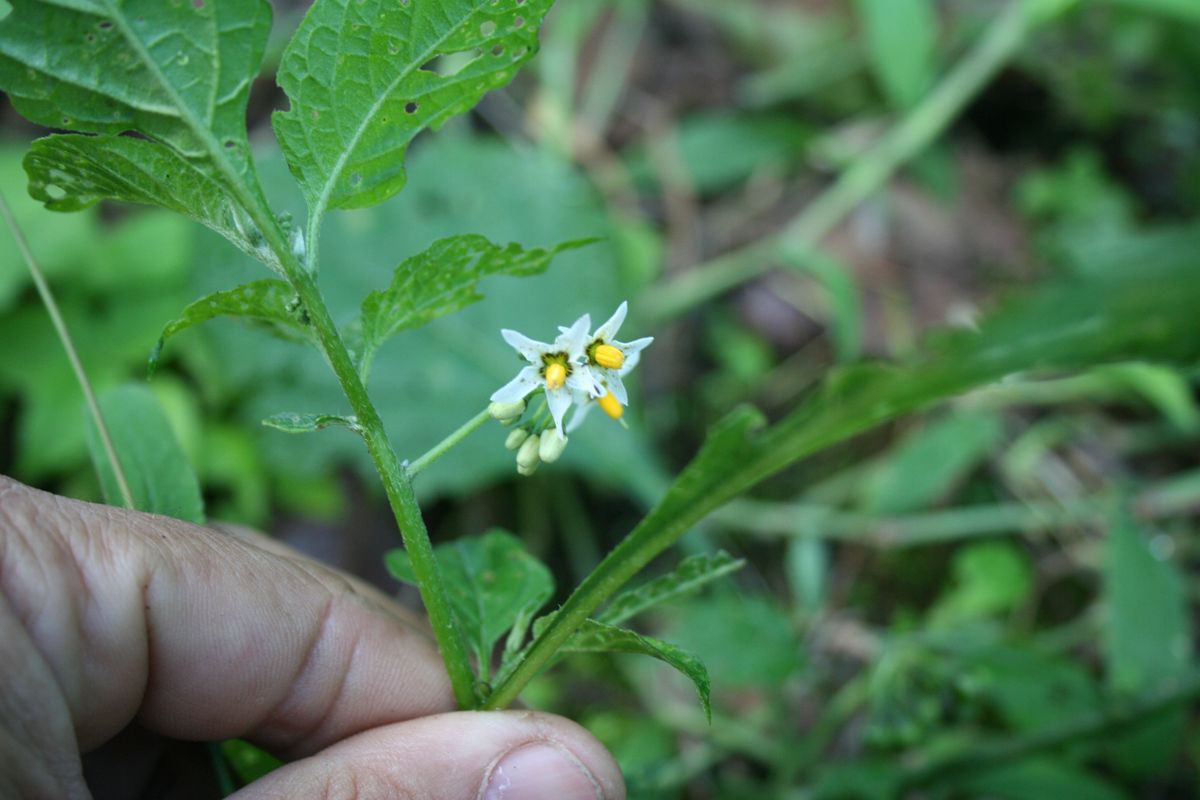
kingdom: Plantae
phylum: Tracheophyta
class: Magnoliopsida
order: Solanales
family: Solanaceae
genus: Solanum
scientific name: Solanum nigrescens
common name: Divine nightshade
